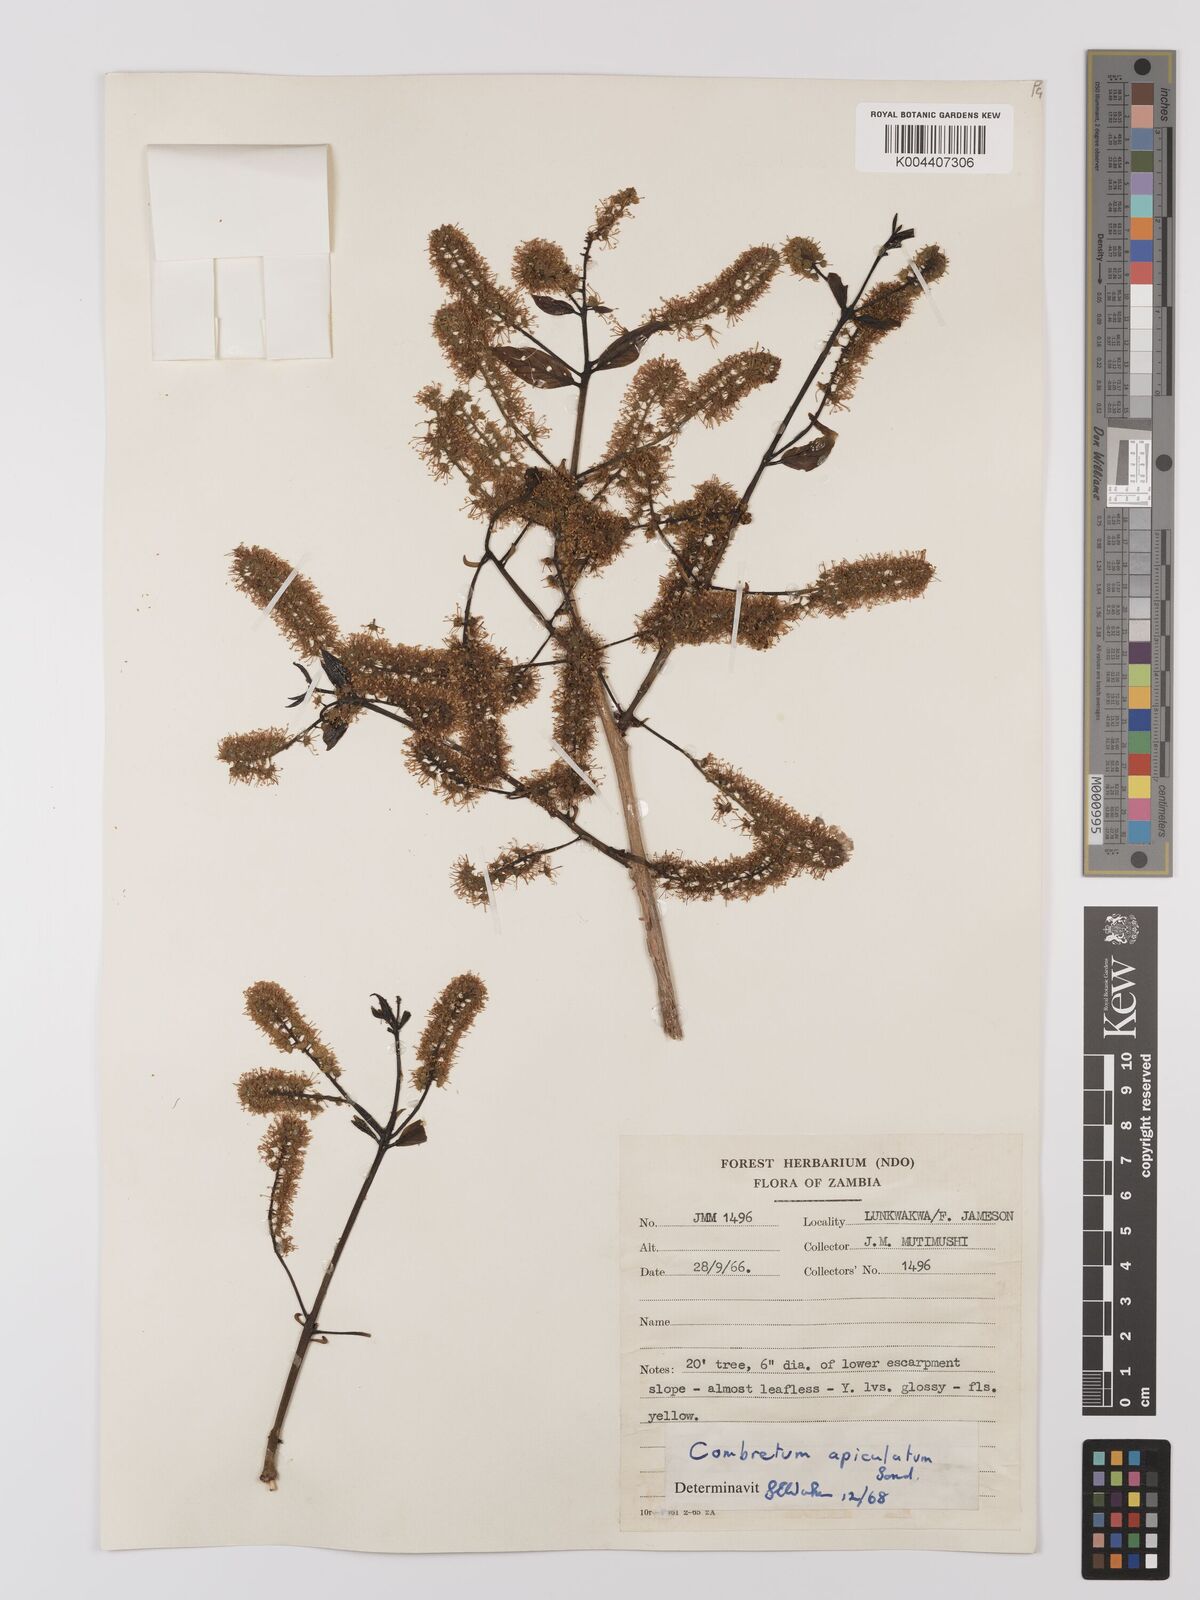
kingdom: Plantae
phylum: Tracheophyta
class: Magnoliopsida
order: Myrtales
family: Combretaceae
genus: Combretum
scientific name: Combretum apiculatum
